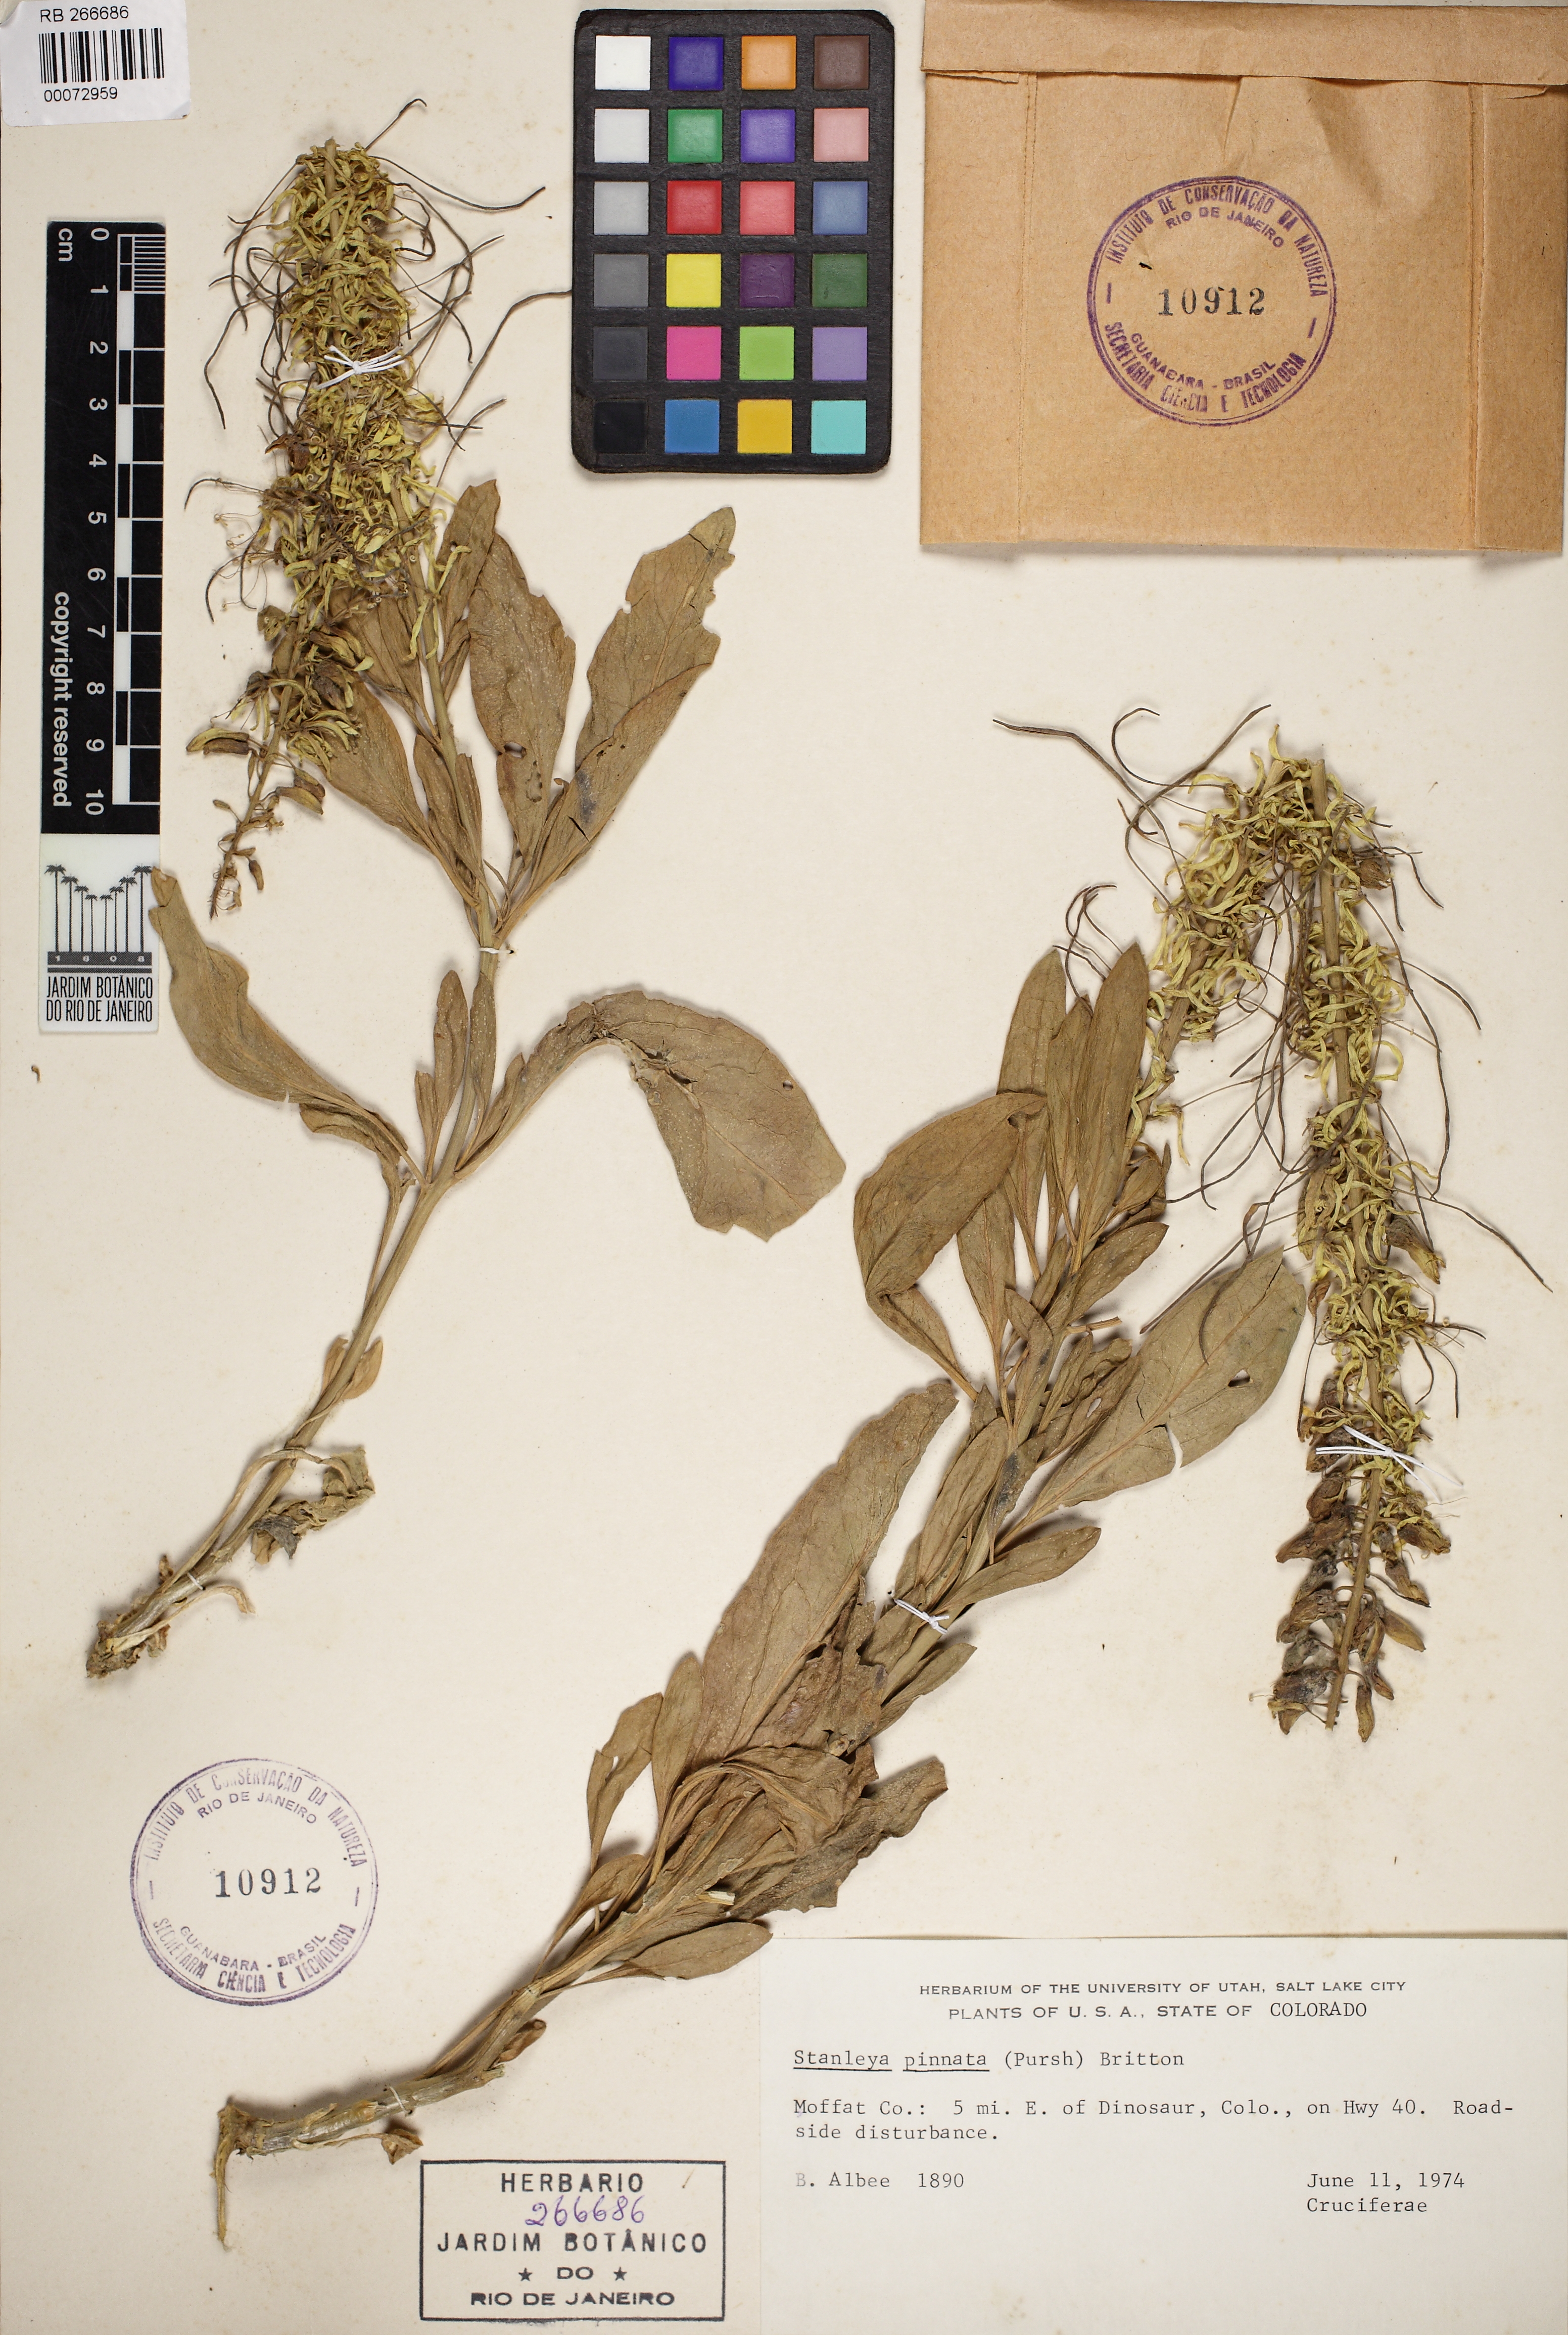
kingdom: Plantae
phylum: Tracheophyta
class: Magnoliopsida
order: Brassicales
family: Brassicaceae
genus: Stanleya
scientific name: Stanleya pinnata
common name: Prince's-plume
